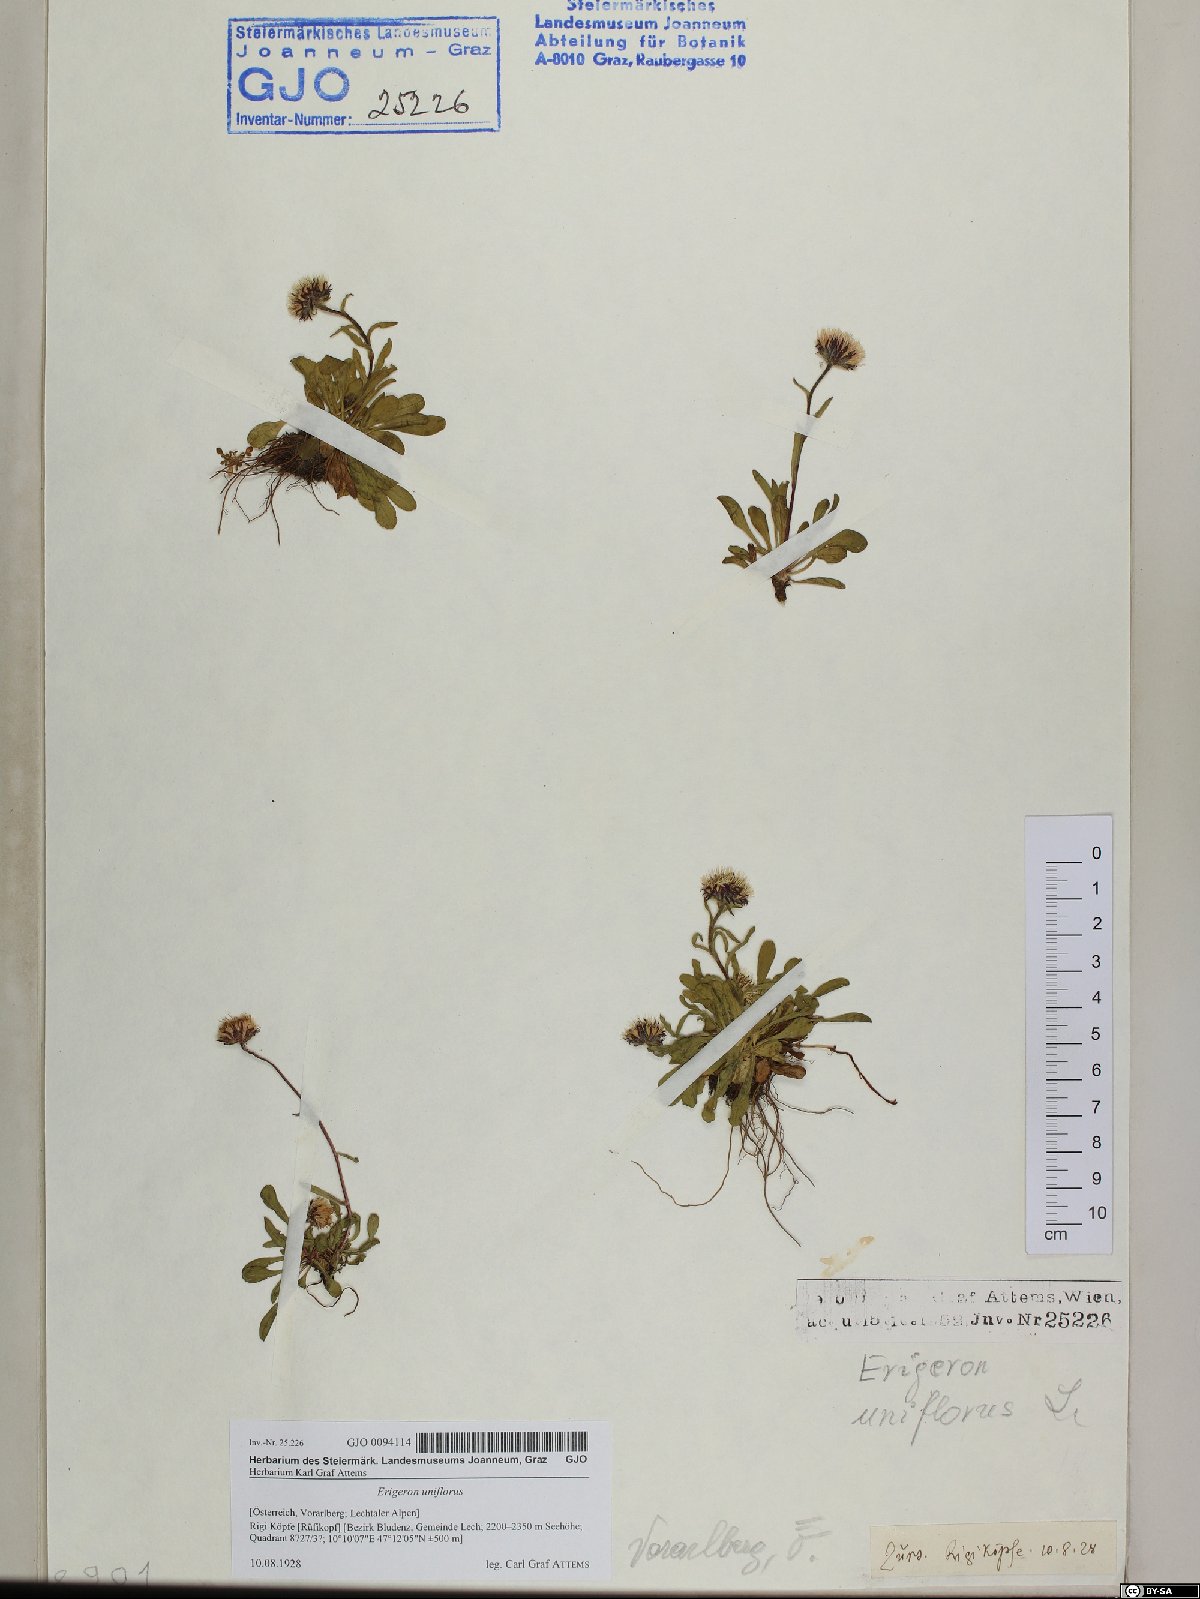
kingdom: Plantae
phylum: Tracheophyta
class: Magnoliopsida
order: Asterales
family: Asteraceae
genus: Erigeron
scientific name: Erigeron uniflorus
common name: Northern daisy
